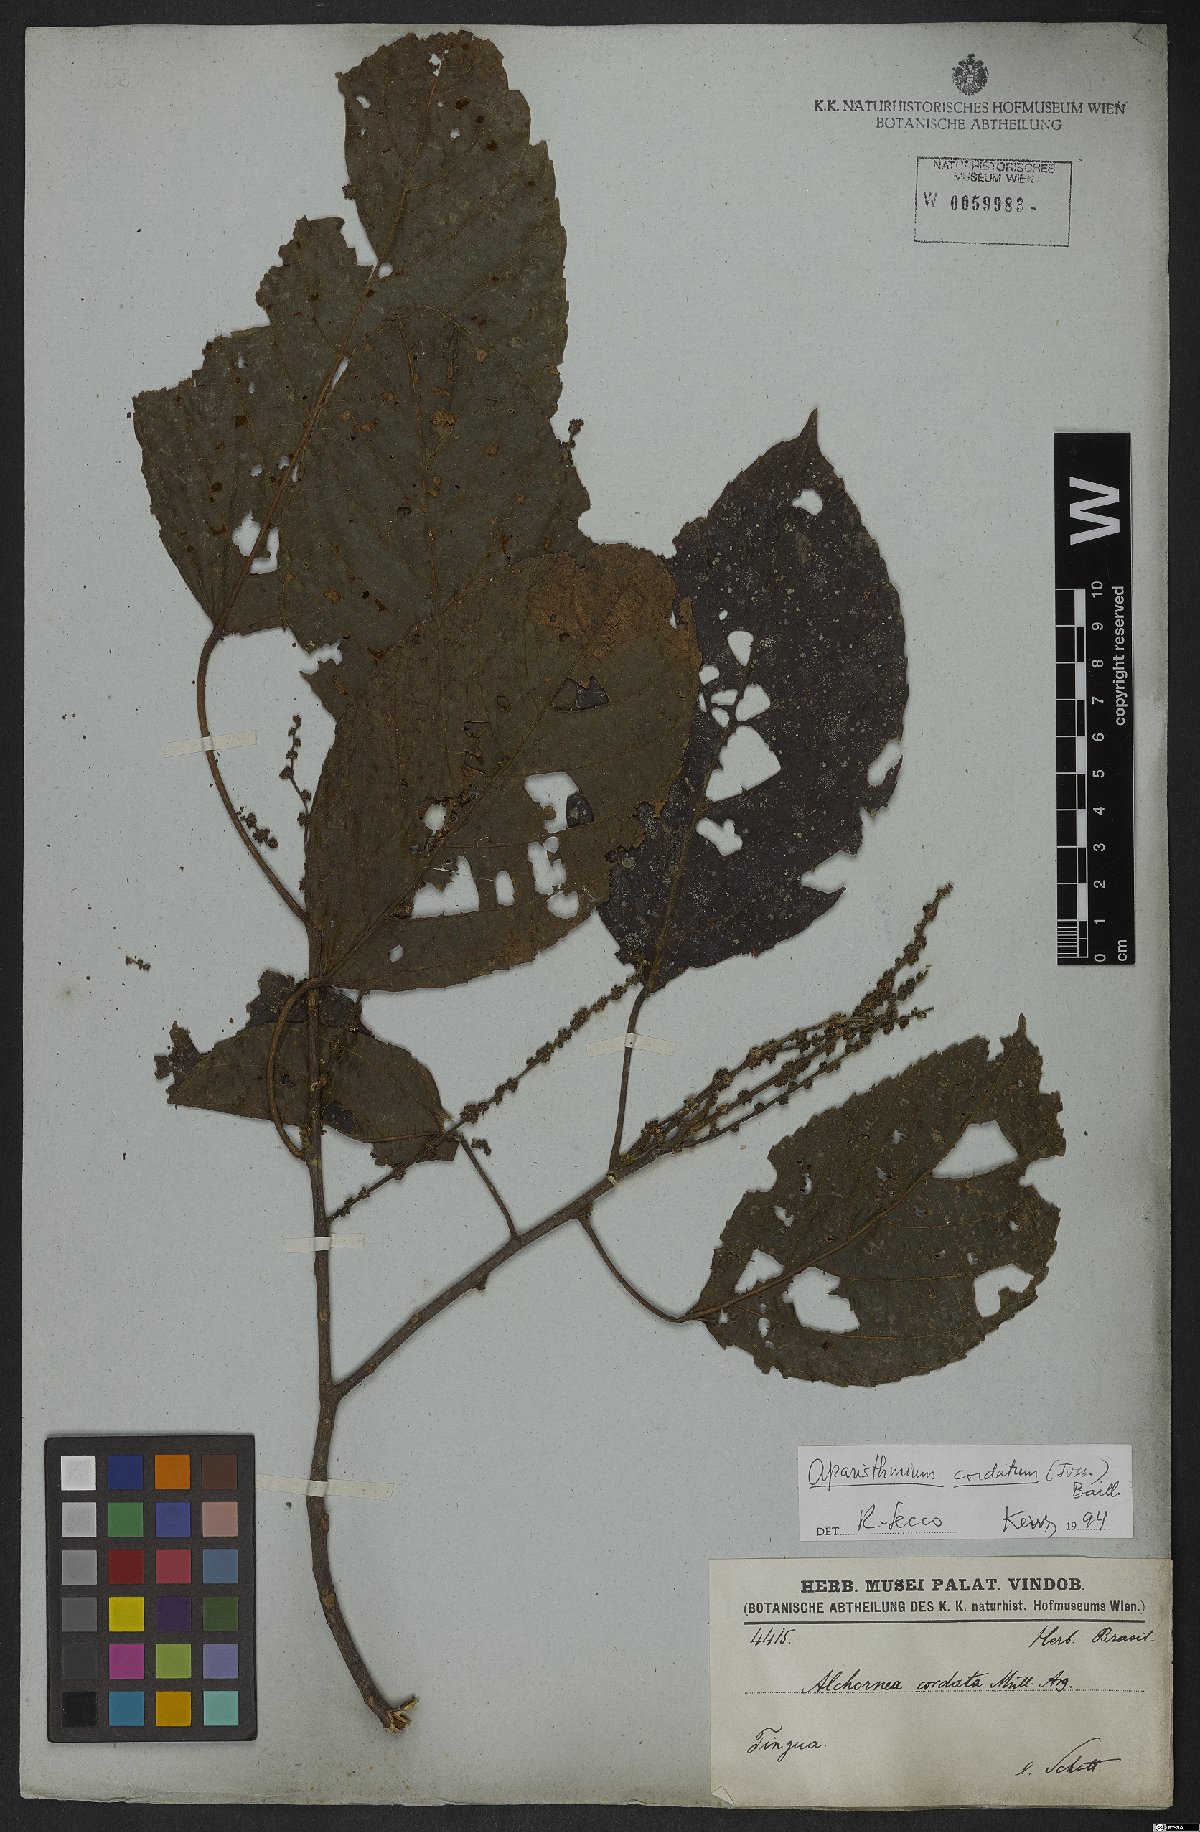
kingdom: Plantae
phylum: Tracheophyta
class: Magnoliopsida
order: Malpighiales
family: Euphorbiaceae
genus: Aparisthmium
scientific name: Aparisthmium cordatum
